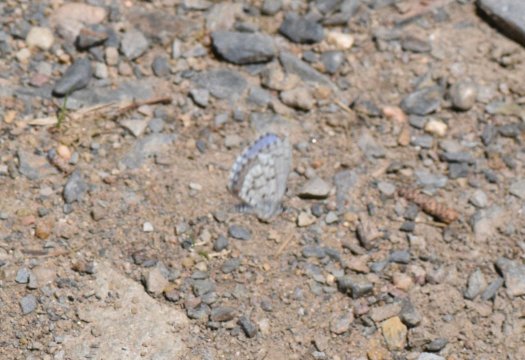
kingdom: Animalia
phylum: Arthropoda
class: Insecta
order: Lepidoptera
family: Lycaenidae
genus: Celastrina
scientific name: Celastrina lucia
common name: Northern Spring Azure
